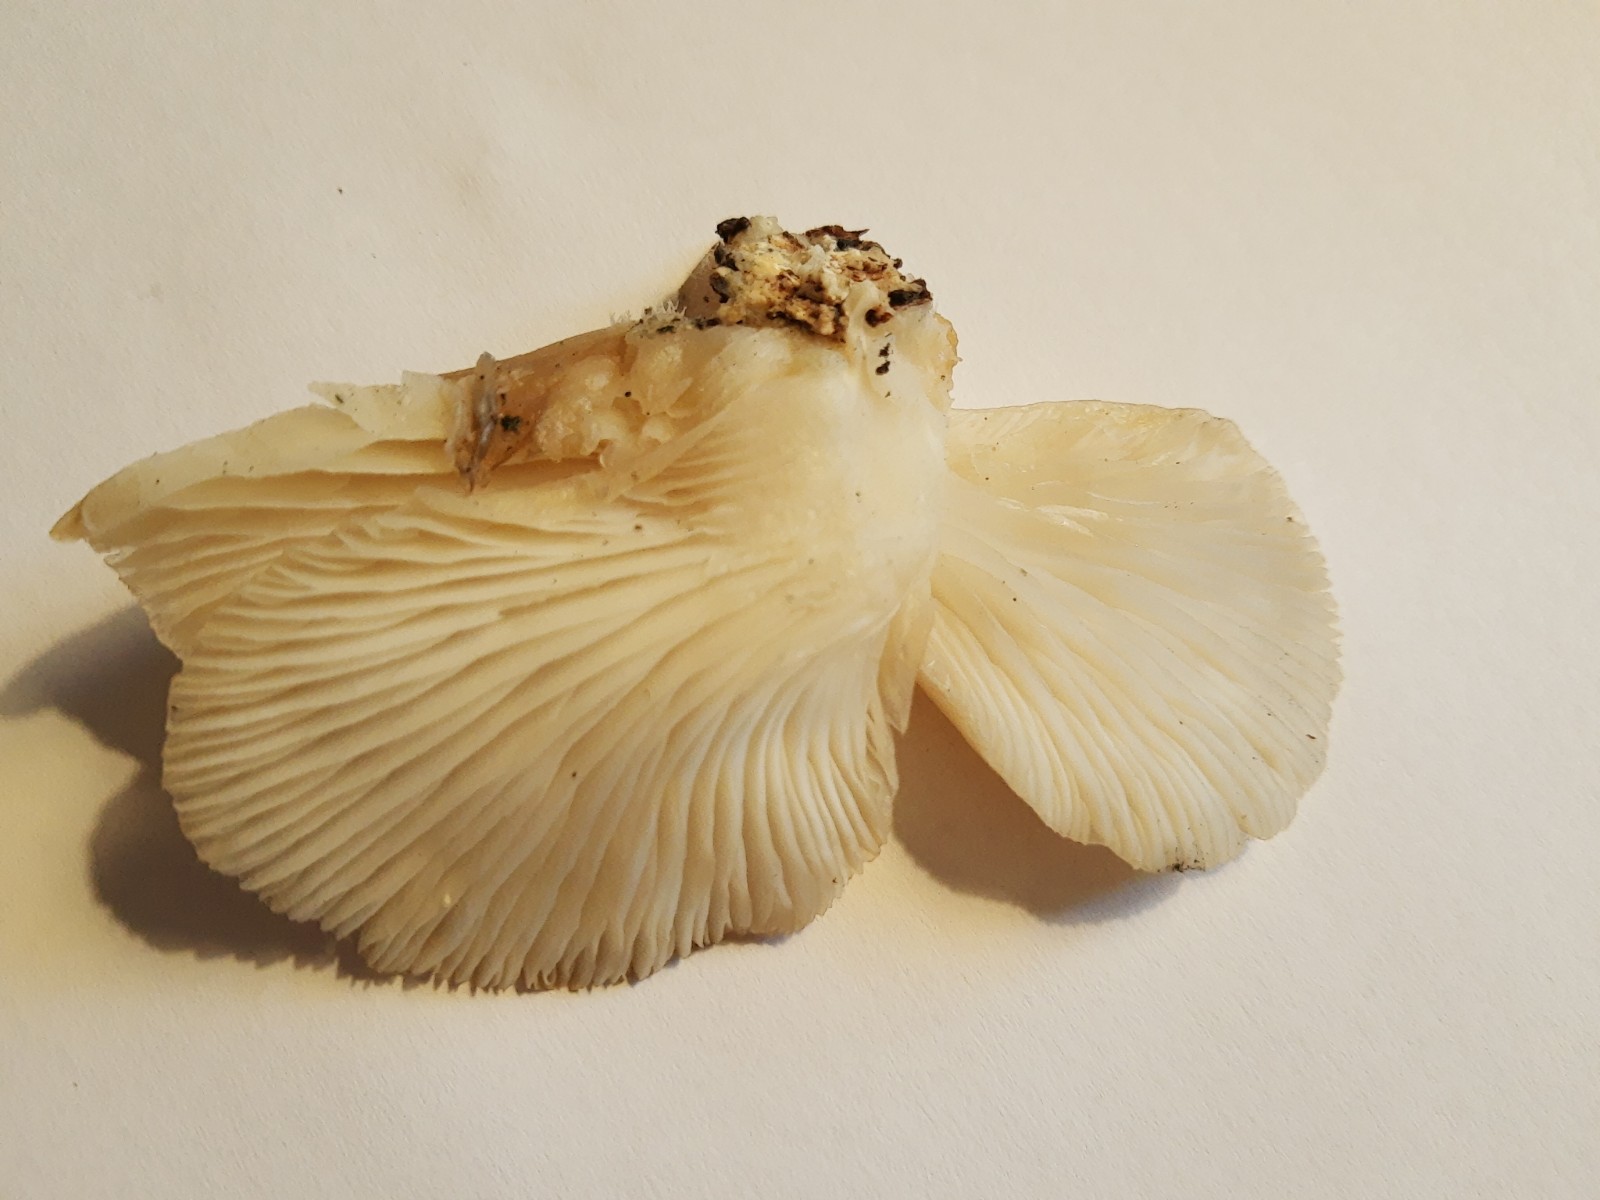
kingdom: Fungi
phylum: Basidiomycota
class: Agaricomycetes
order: Agaricales
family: Pleurotaceae
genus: Pleurotus
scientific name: Pleurotus
